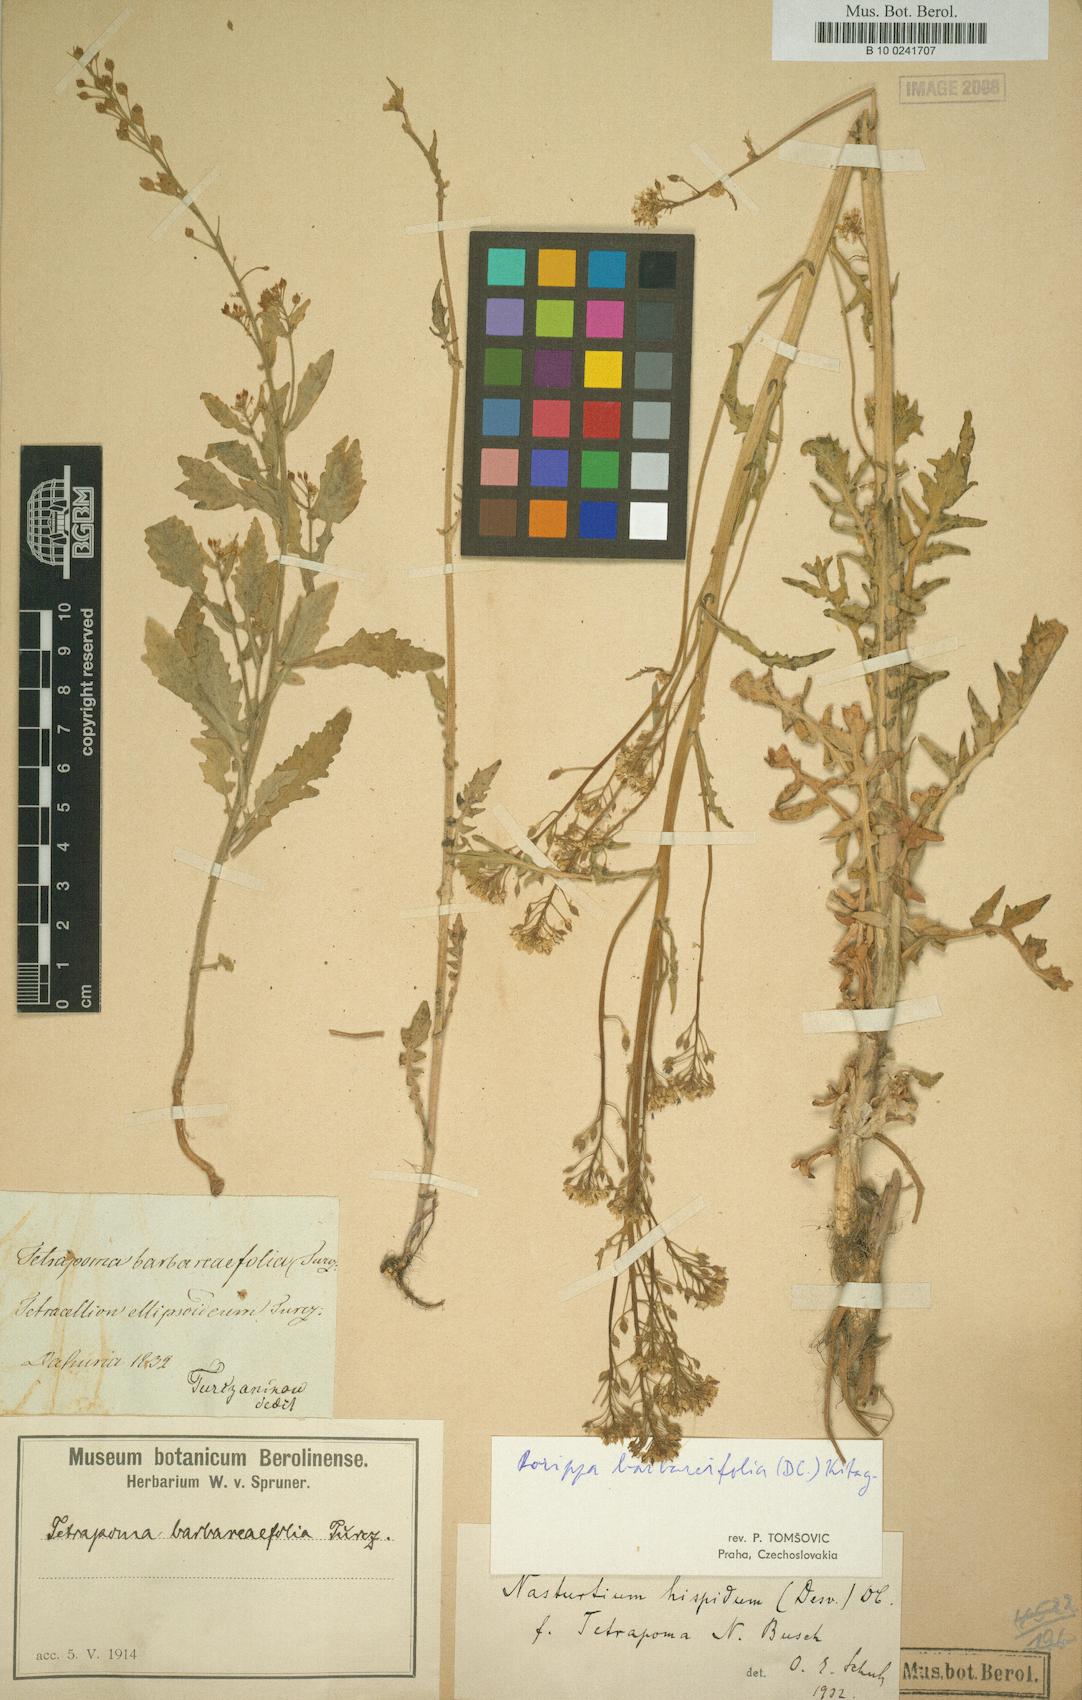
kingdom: Plantae
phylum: Tracheophyta
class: Magnoliopsida
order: Brassicales
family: Brassicaceae
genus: Rorippa
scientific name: Rorippa barbareifolia
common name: Hoary yellowcress
